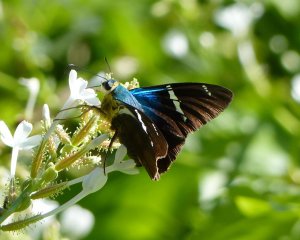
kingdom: Animalia
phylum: Arthropoda
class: Insecta
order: Lepidoptera
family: Hesperiidae
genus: Astraptes
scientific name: Astraptes fulgerator
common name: Two-barred Flasher
